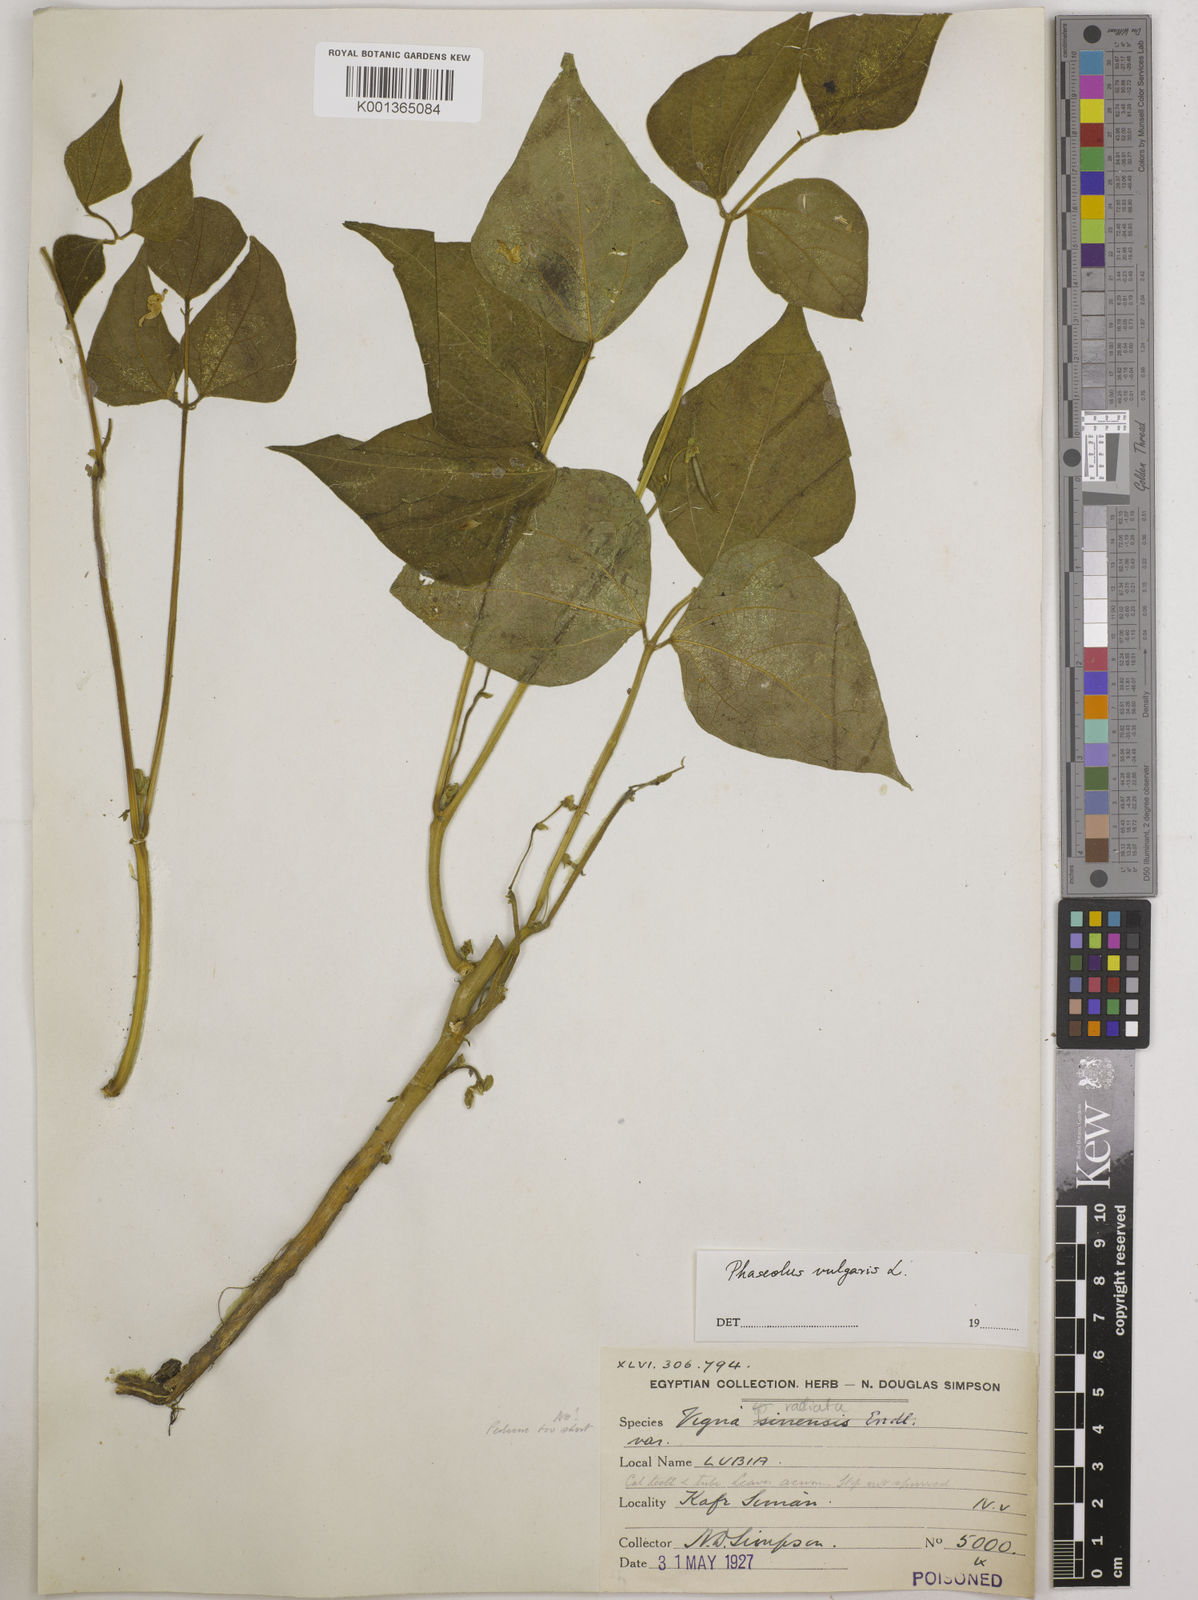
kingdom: Plantae
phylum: Tracheophyta
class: Magnoliopsida
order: Fabales
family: Fabaceae
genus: Phaseolus
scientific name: Phaseolus vulgaris
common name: Bean
